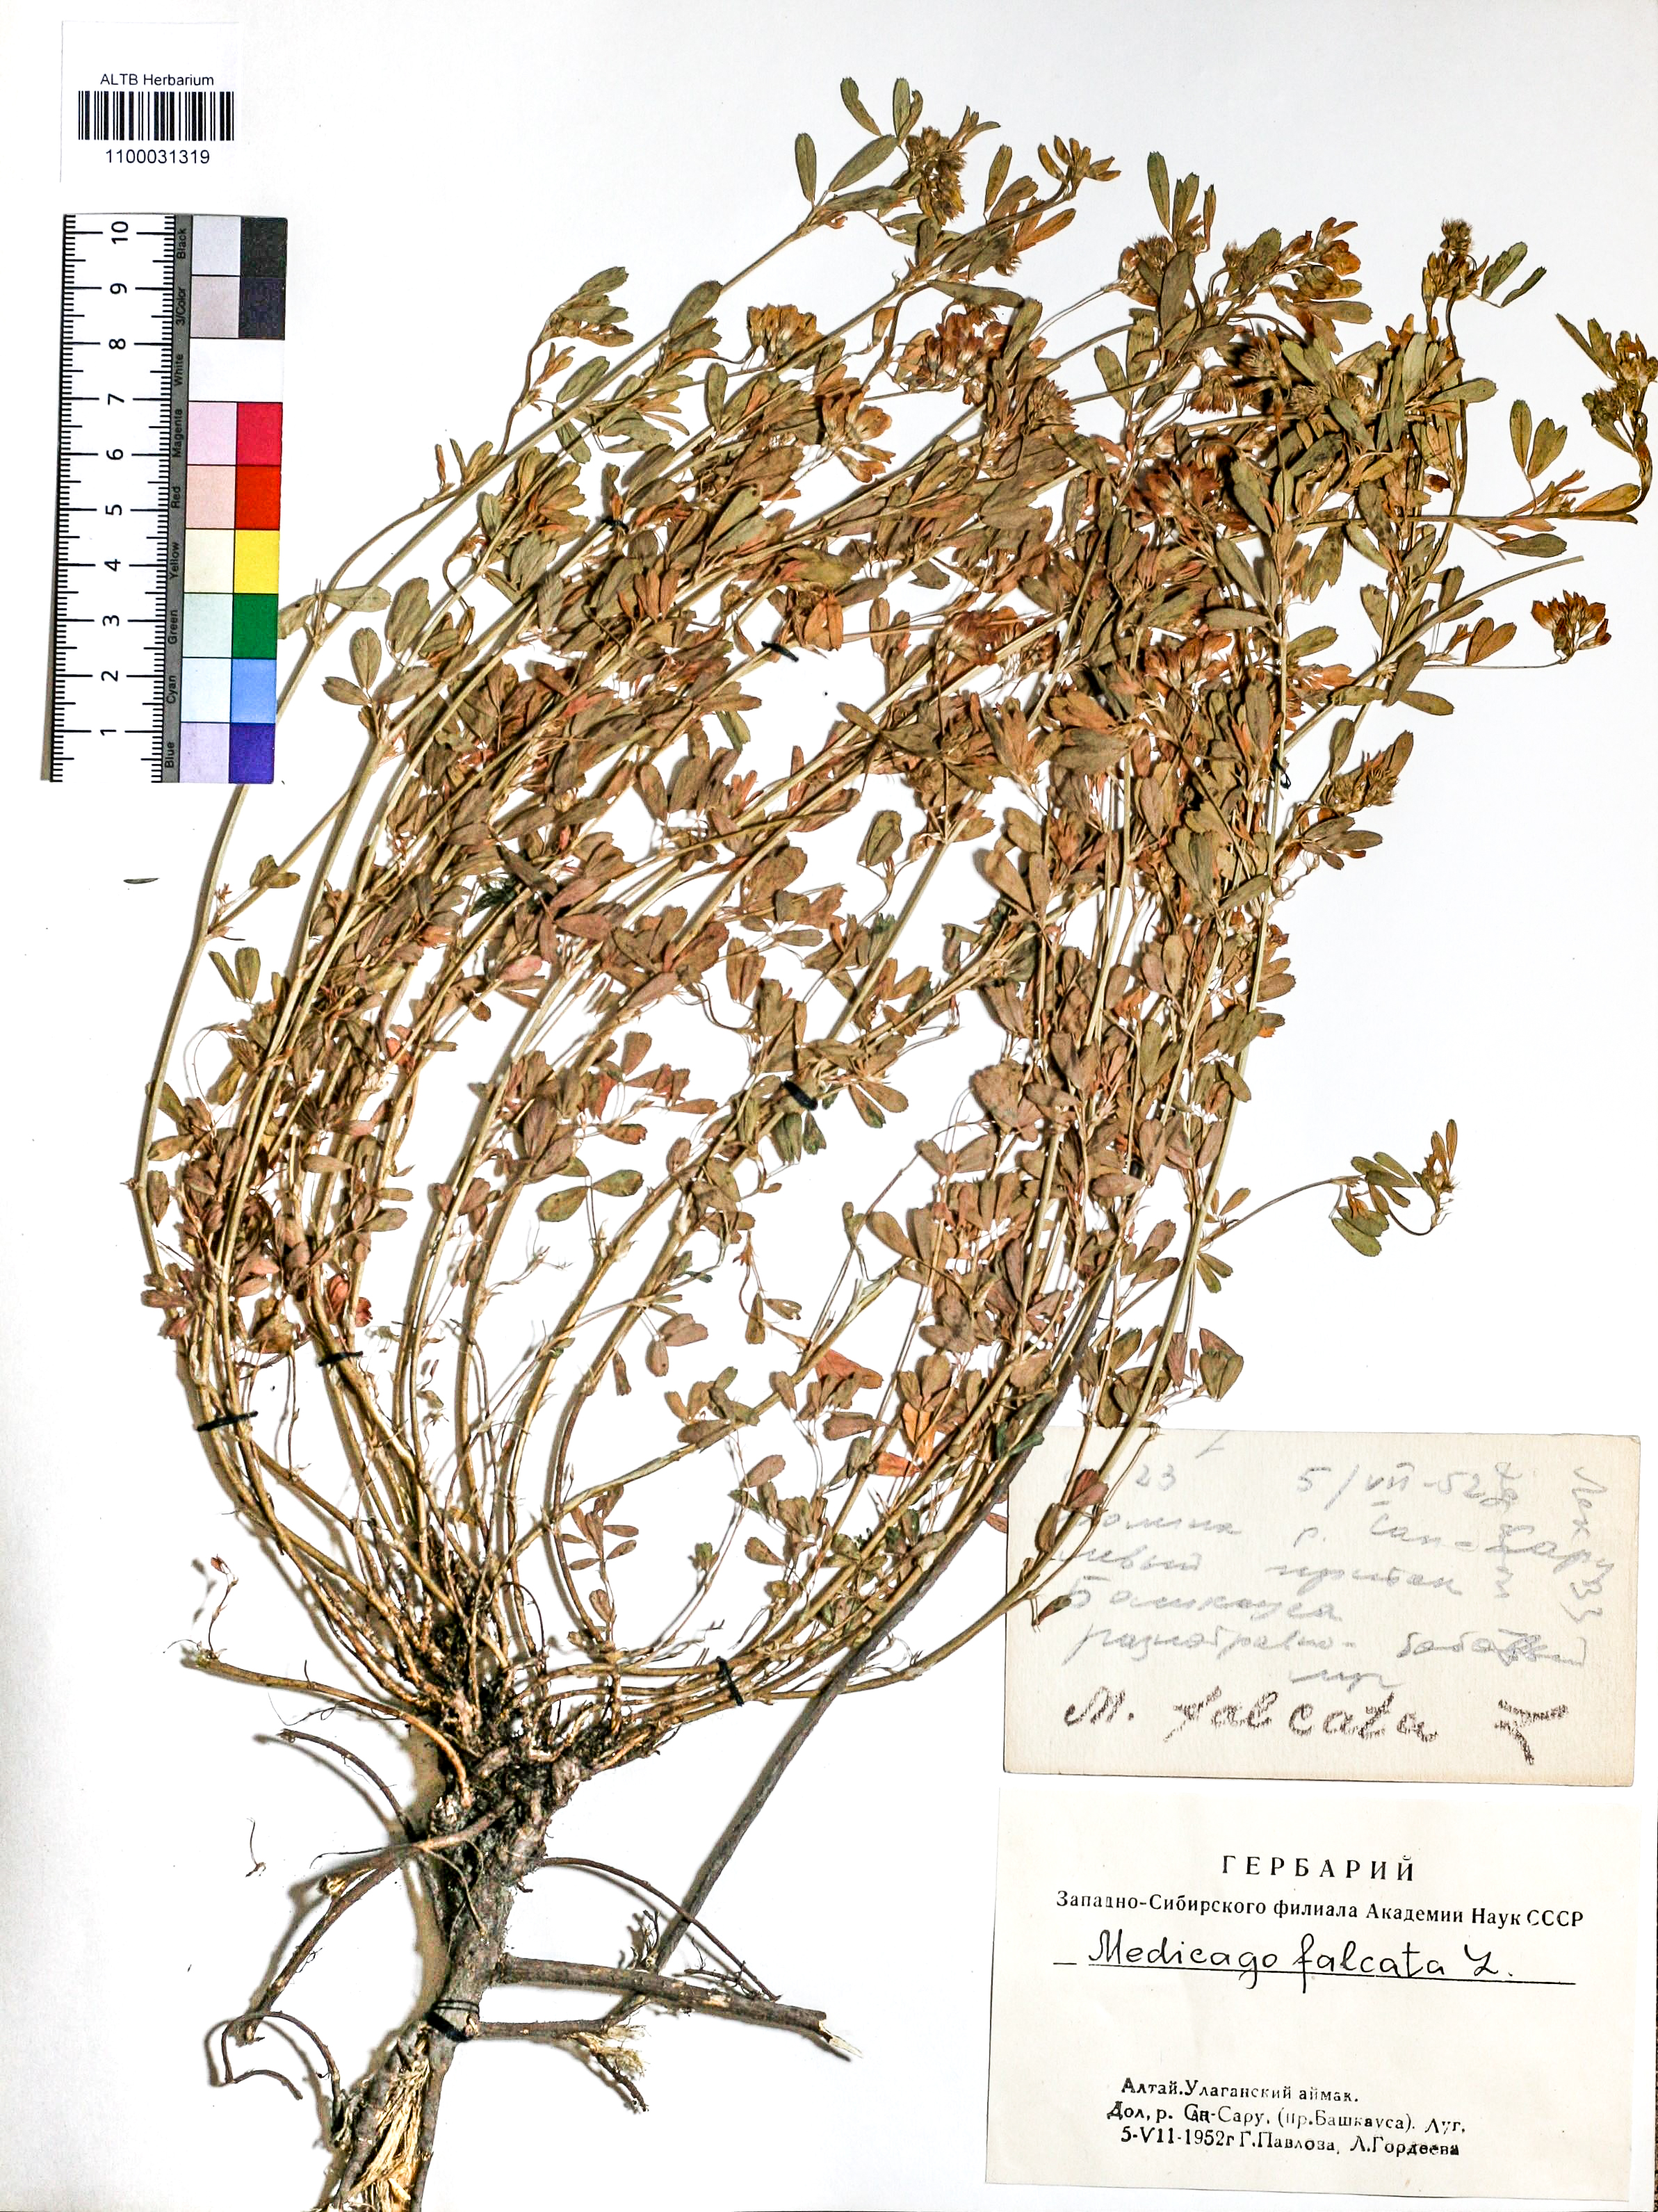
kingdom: Plantae
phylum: Tracheophyta
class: Magnoliopsida
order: Fabales
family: Fabaceae
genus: Medicago
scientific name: Medicago falcata
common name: Sickle medick
